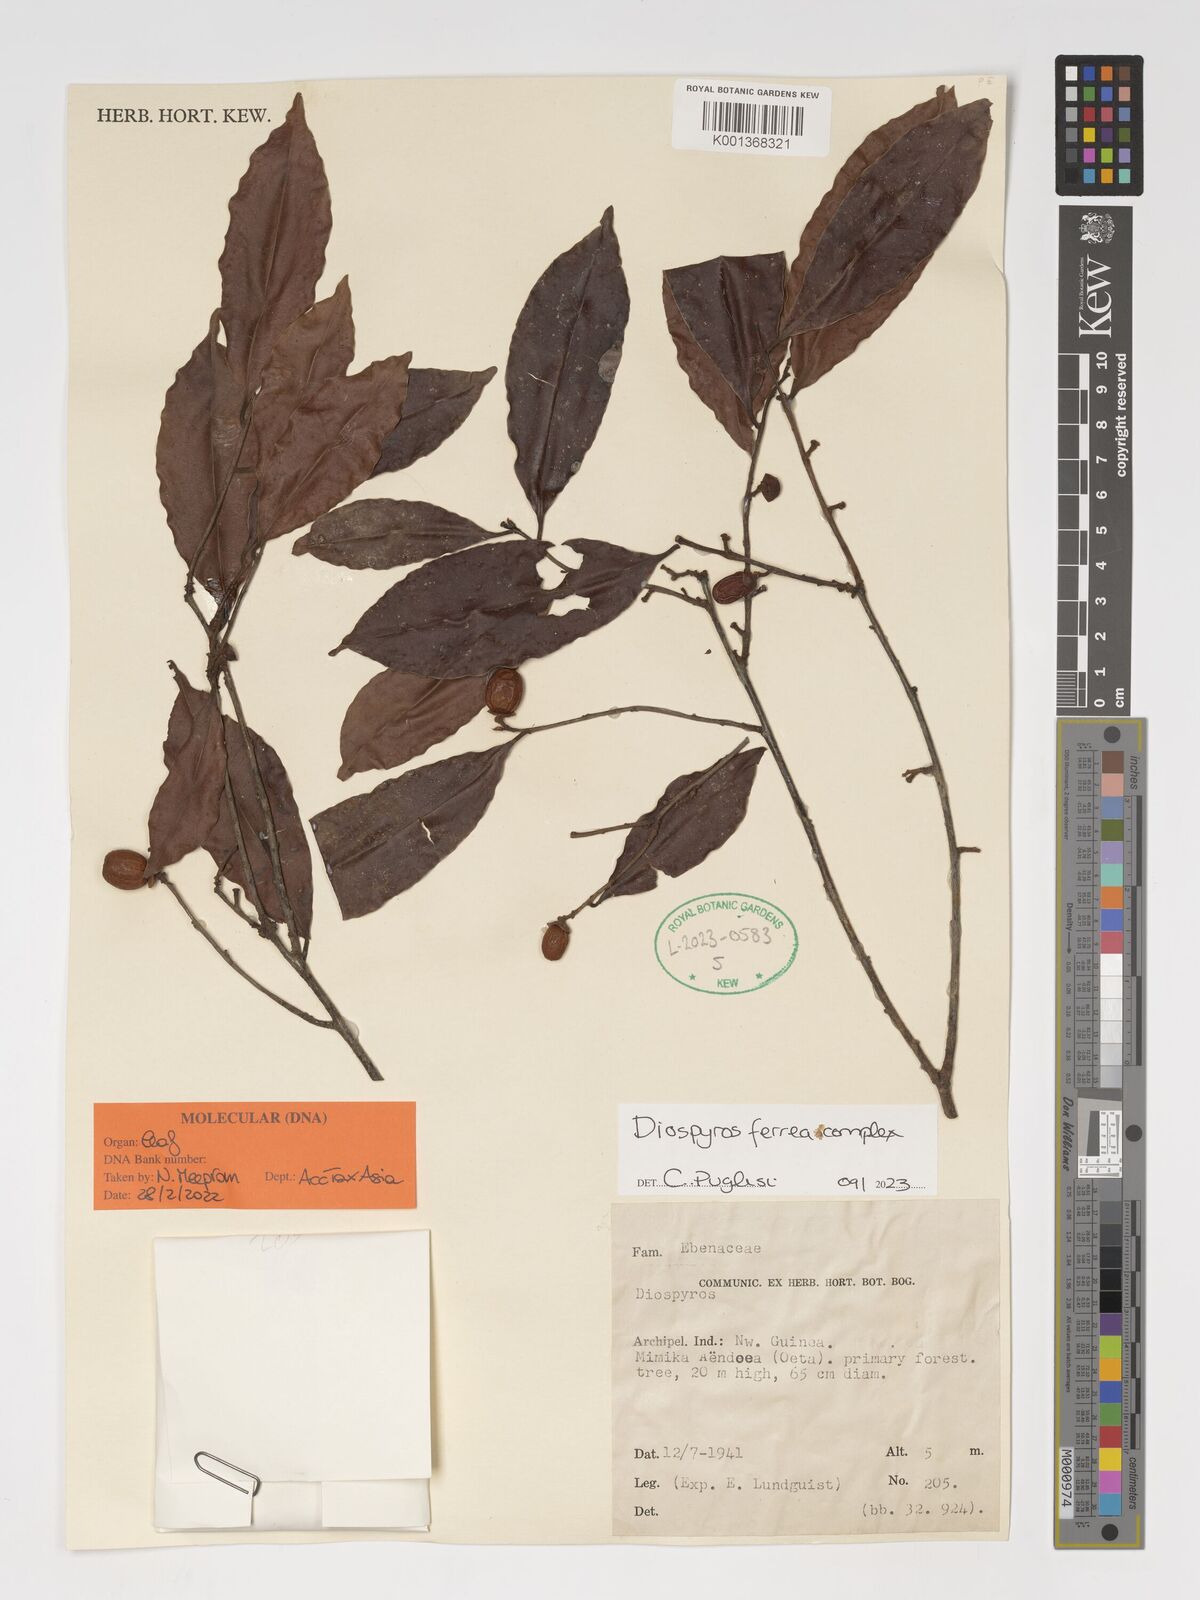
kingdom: Plantae
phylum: Tracheophyta
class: Magnoliopsida
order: Ericales
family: Ebenaceae
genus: Diospyros
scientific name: Diospyros ferrea
